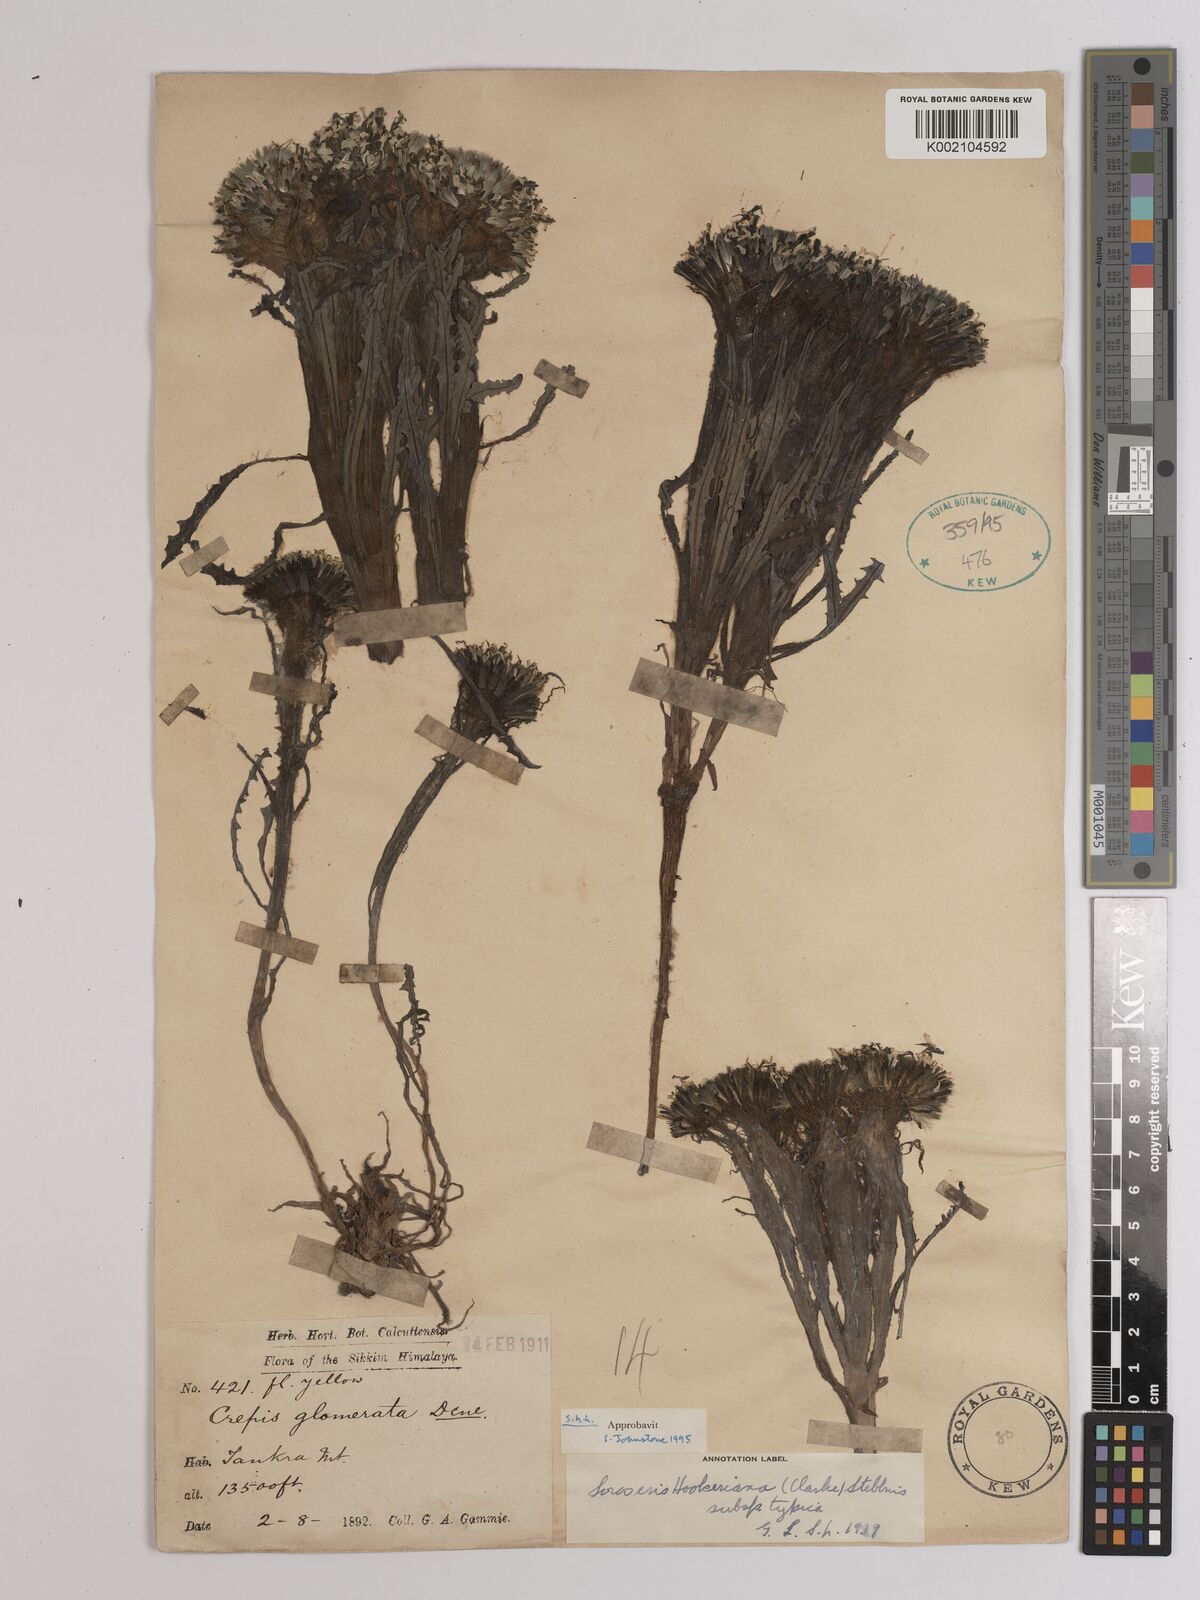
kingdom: Plantae
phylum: Tracheophyta
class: Magnoliopsida
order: Asterales
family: Asteraceae
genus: Soroseris
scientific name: Soroseris hookeriana
